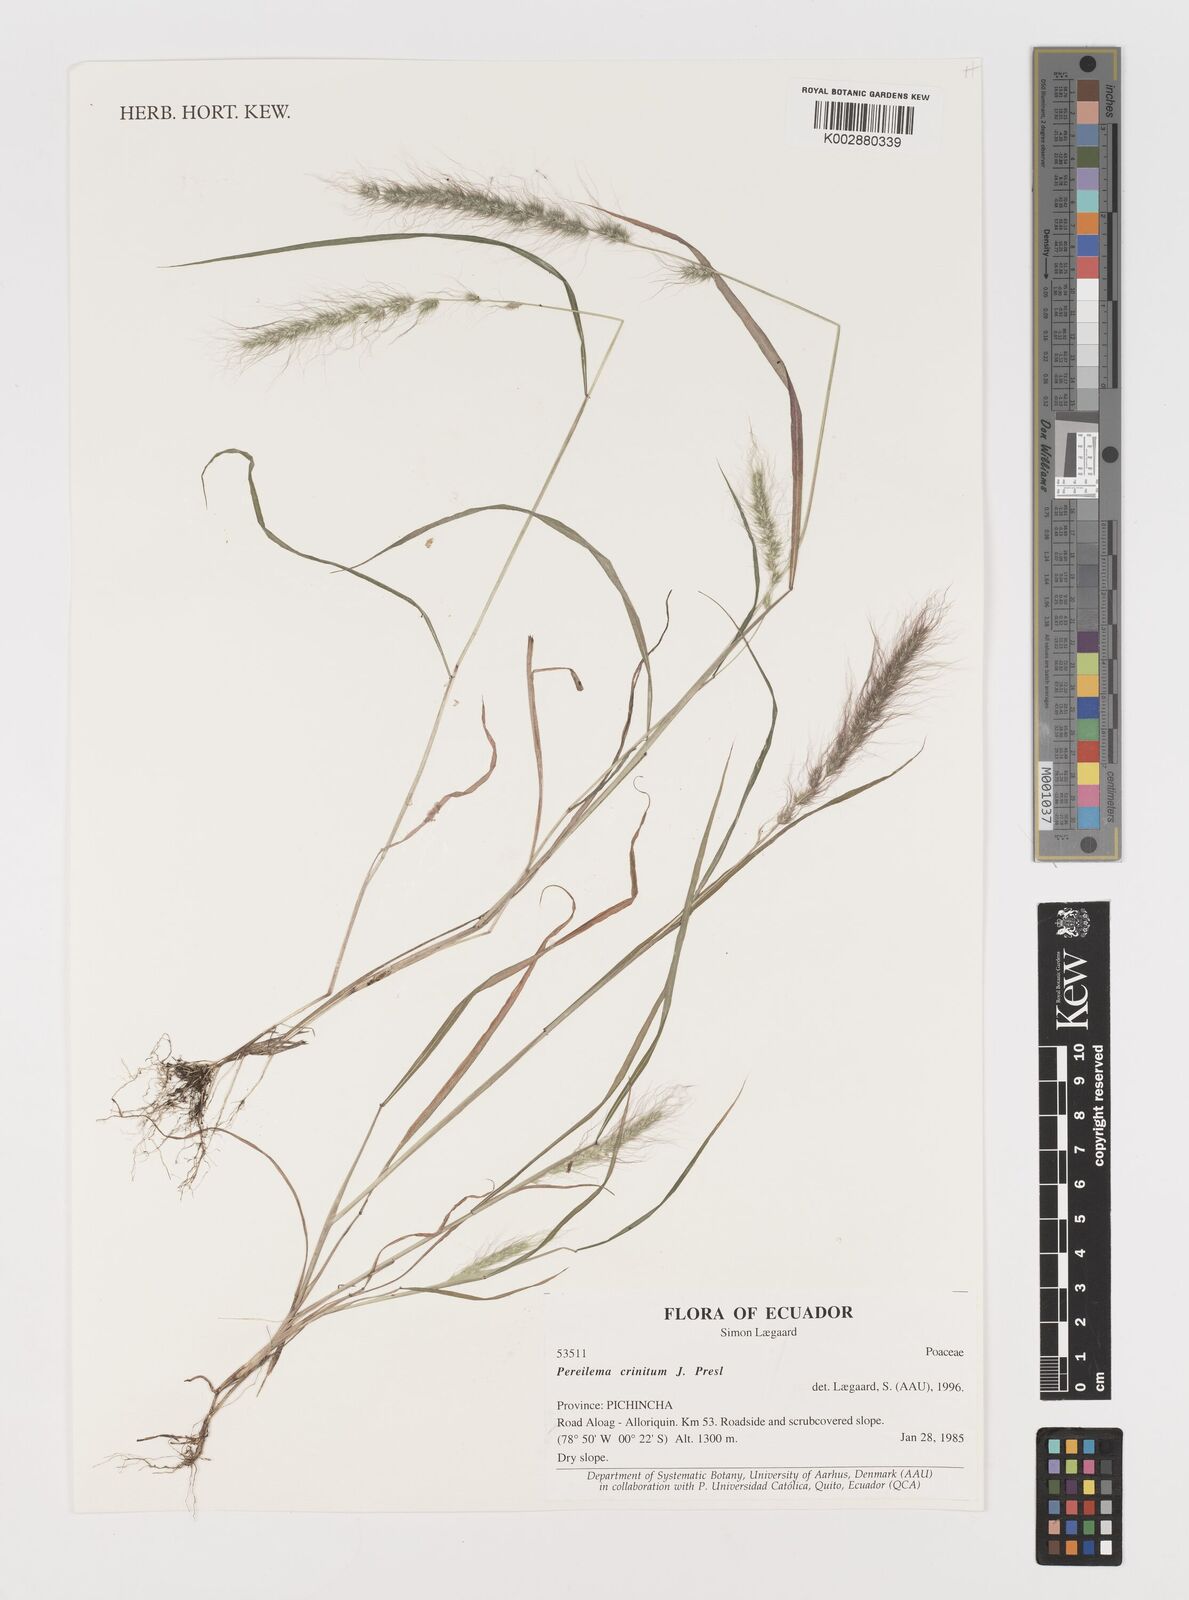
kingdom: Plantae
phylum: Tracheophyta
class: Liliopsida
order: Poales
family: Poaceae
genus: Muhlenbergia
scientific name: Muhlenbergia pereilema
